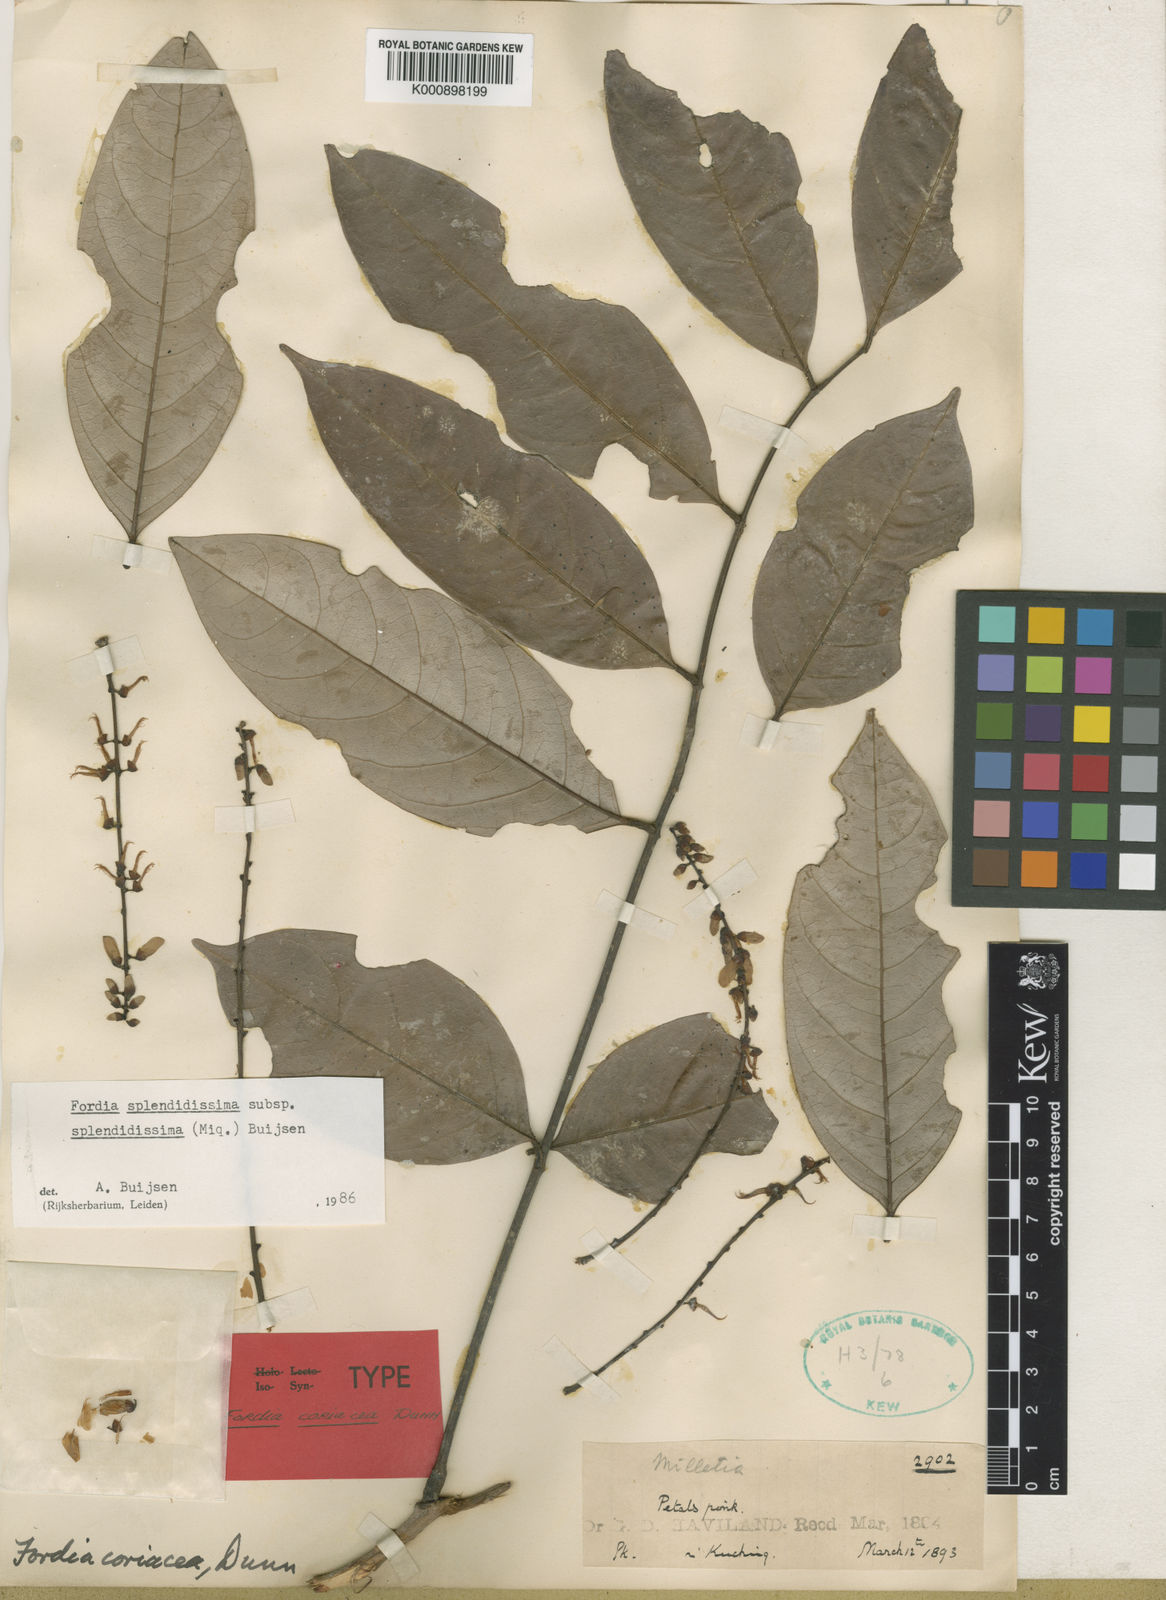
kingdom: Plantae
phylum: Tracheophyta
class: Magnoliopsida
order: Fabales
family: Fabaceae
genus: Fordia
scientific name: Fordia splendidissima
